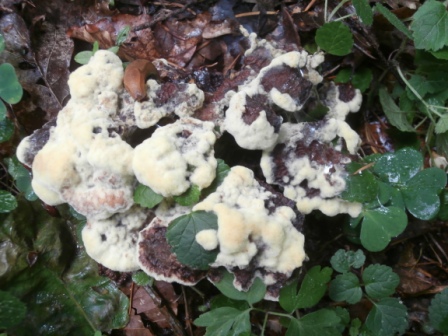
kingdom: Fungi
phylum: Basidiomycota
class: Agaricomycetes
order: Polyporales
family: Laetiporaceae
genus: Phaeolus
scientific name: Phaeolus schweinitzii
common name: brunporesvamp
